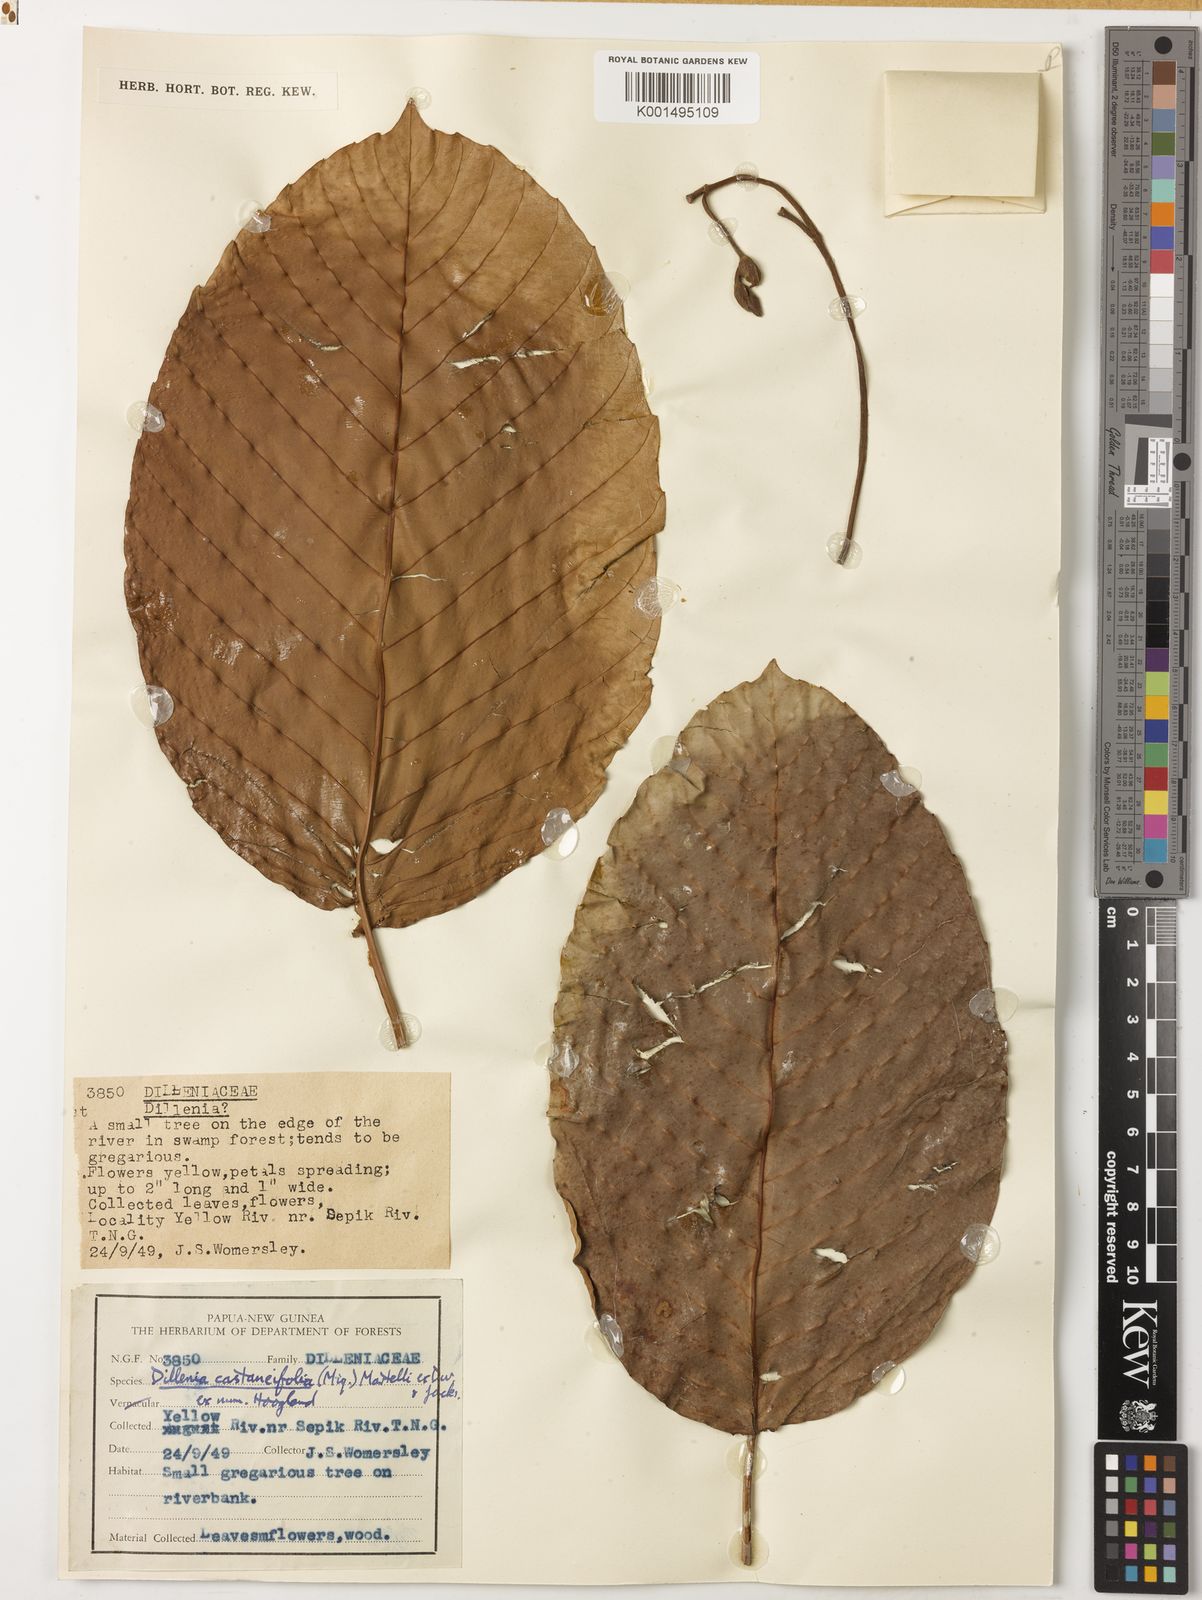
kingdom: Plantae
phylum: Tracheophyta
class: Magnoliopsida
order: Dilleniales
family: Dilleniaceae
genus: Dillenia
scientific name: Dillenia castaneifolia
